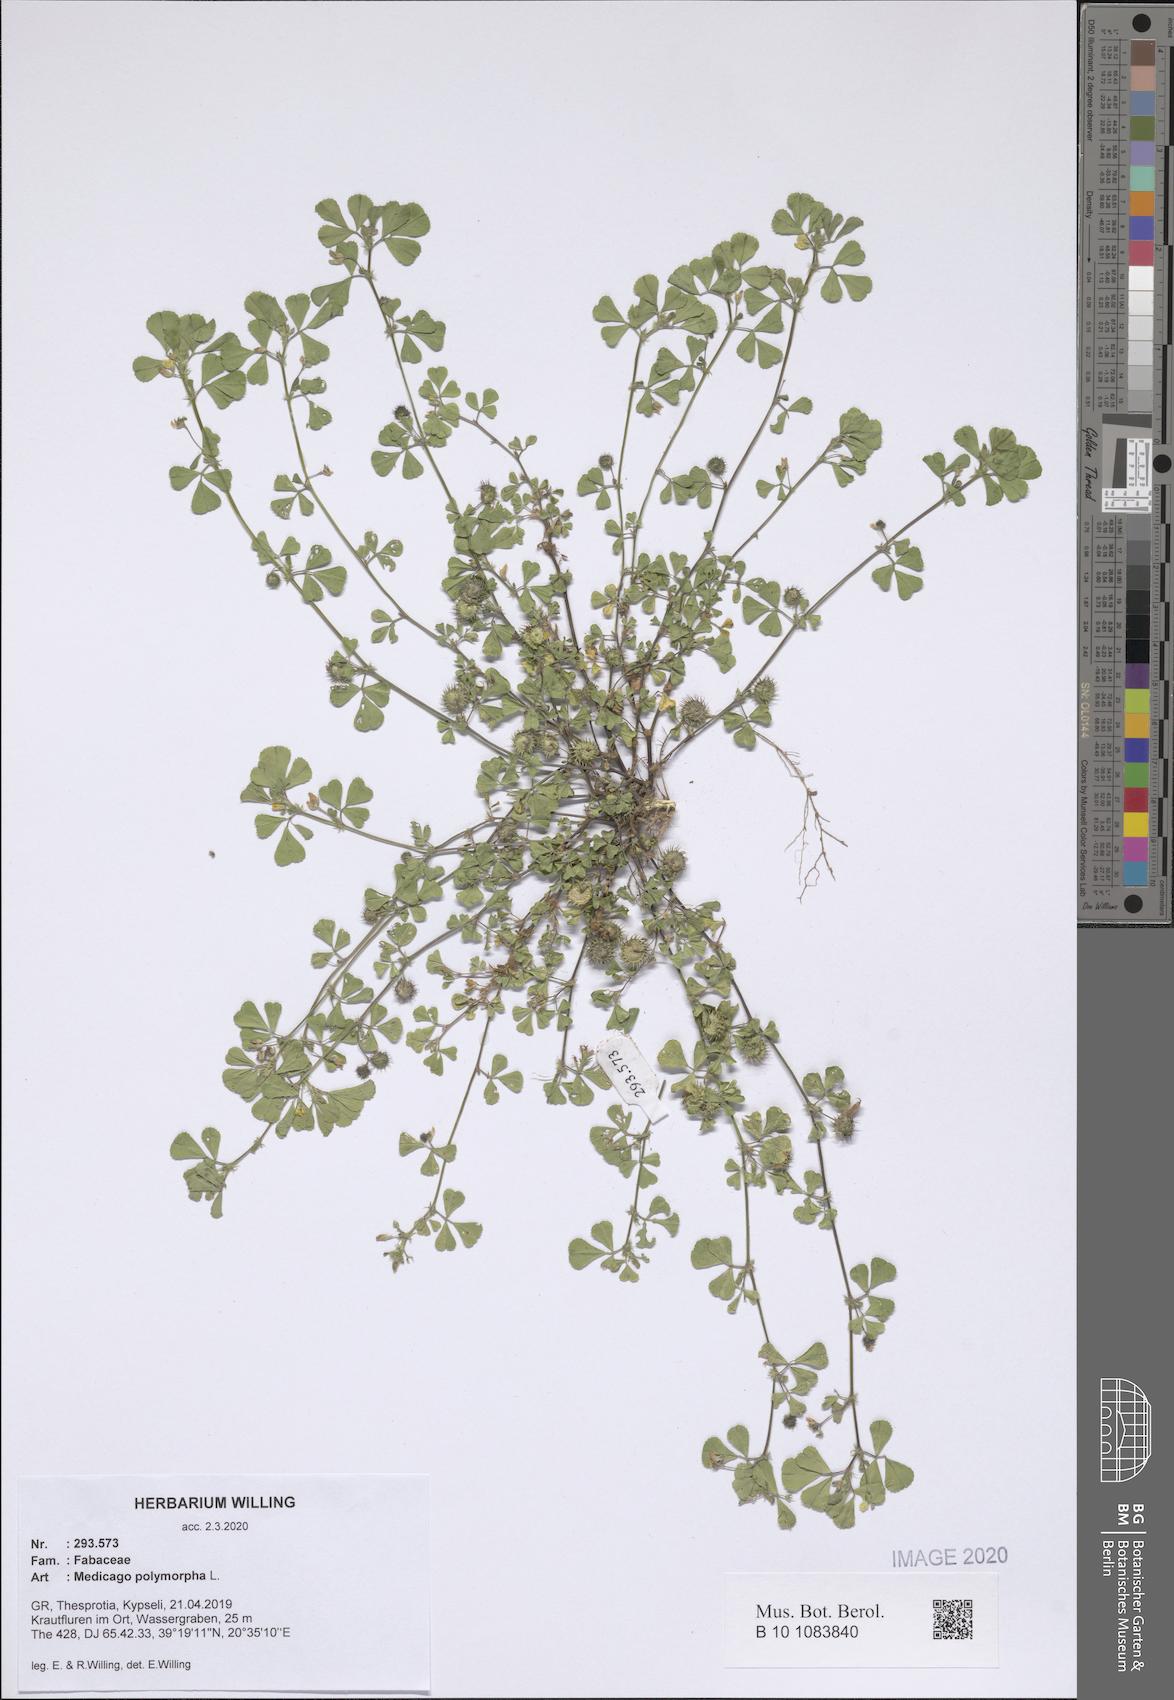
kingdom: Plantae
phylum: Tracheophyta
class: Magnoliopsida
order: Fabales
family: Fabaceae
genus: Medicago
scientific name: Medicago polymorpha
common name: Burclover
